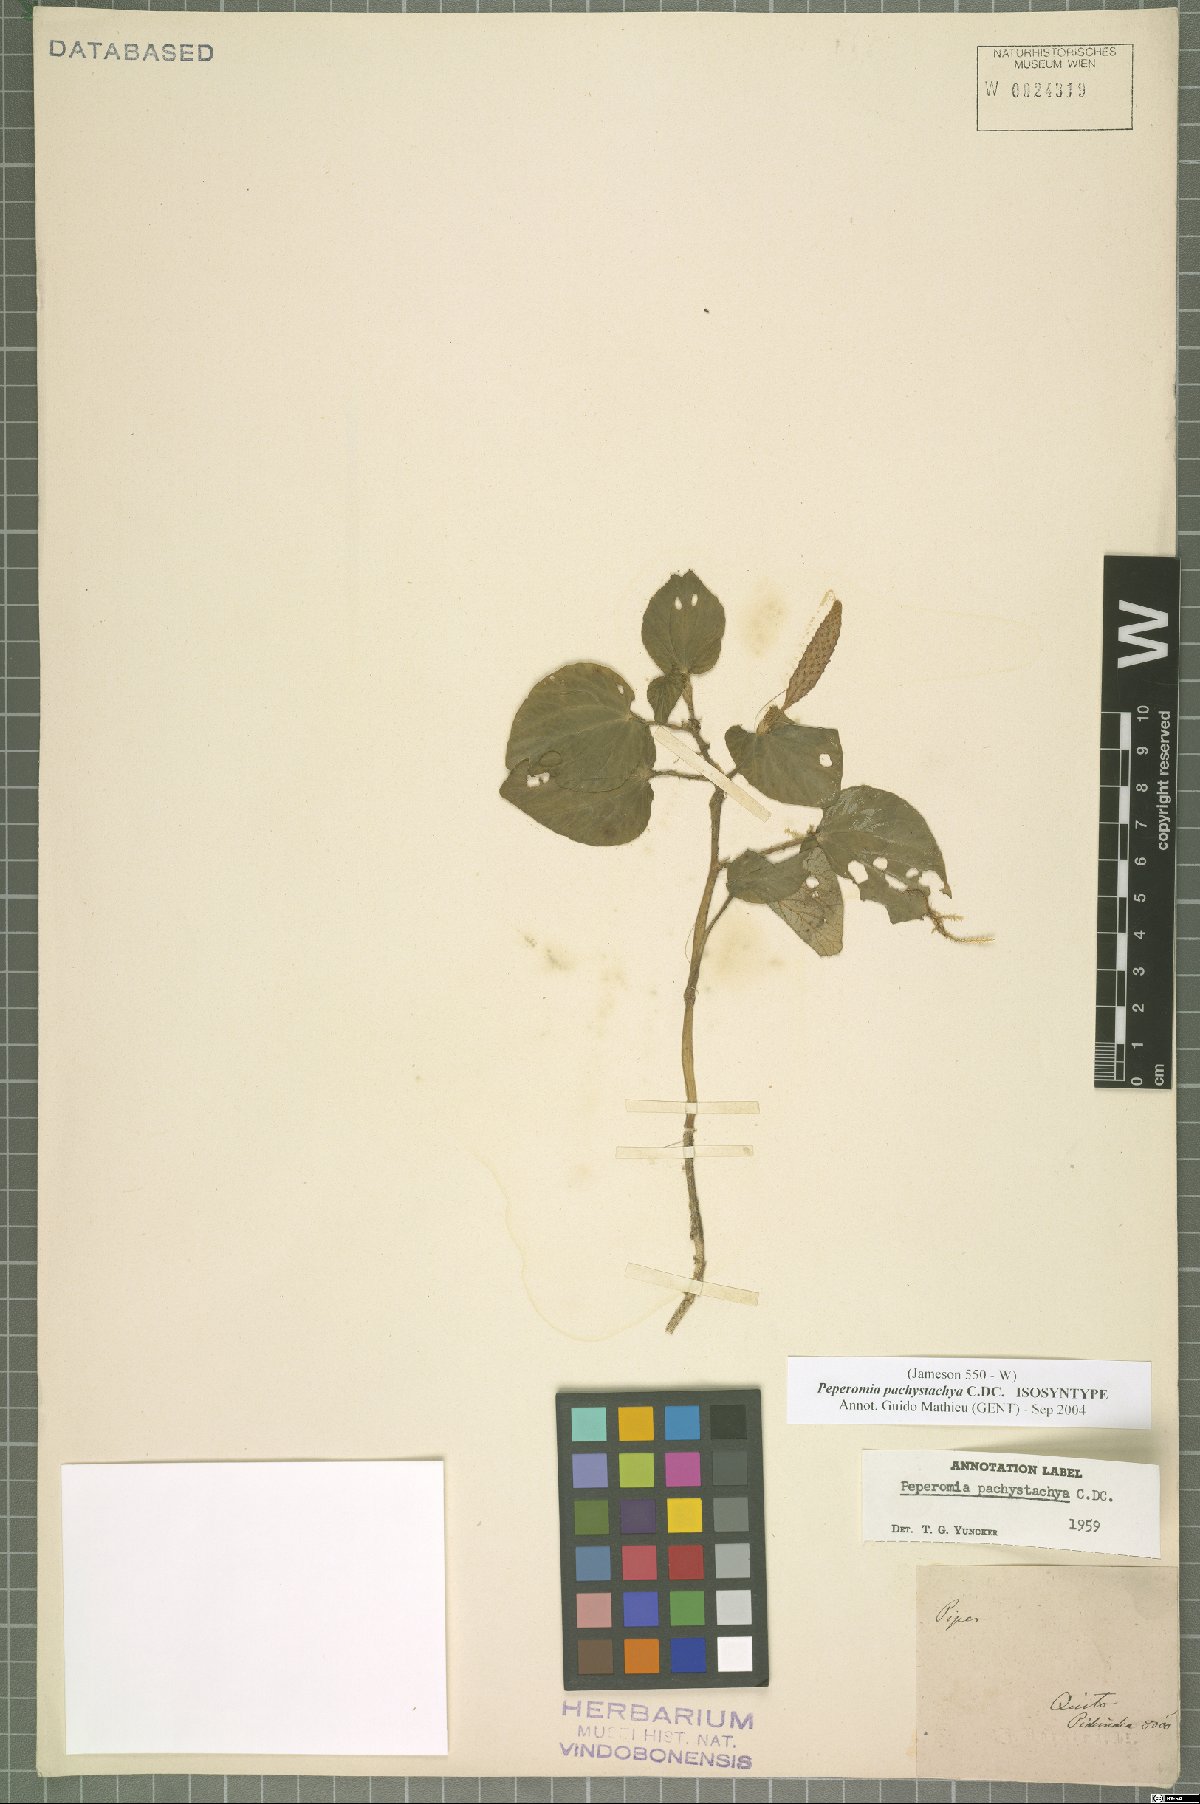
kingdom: Plantae
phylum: Tracheophyta
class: Magnoliopsida
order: Piperales
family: Piperaceae
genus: Peperomia
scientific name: Peperomia pachystachya
